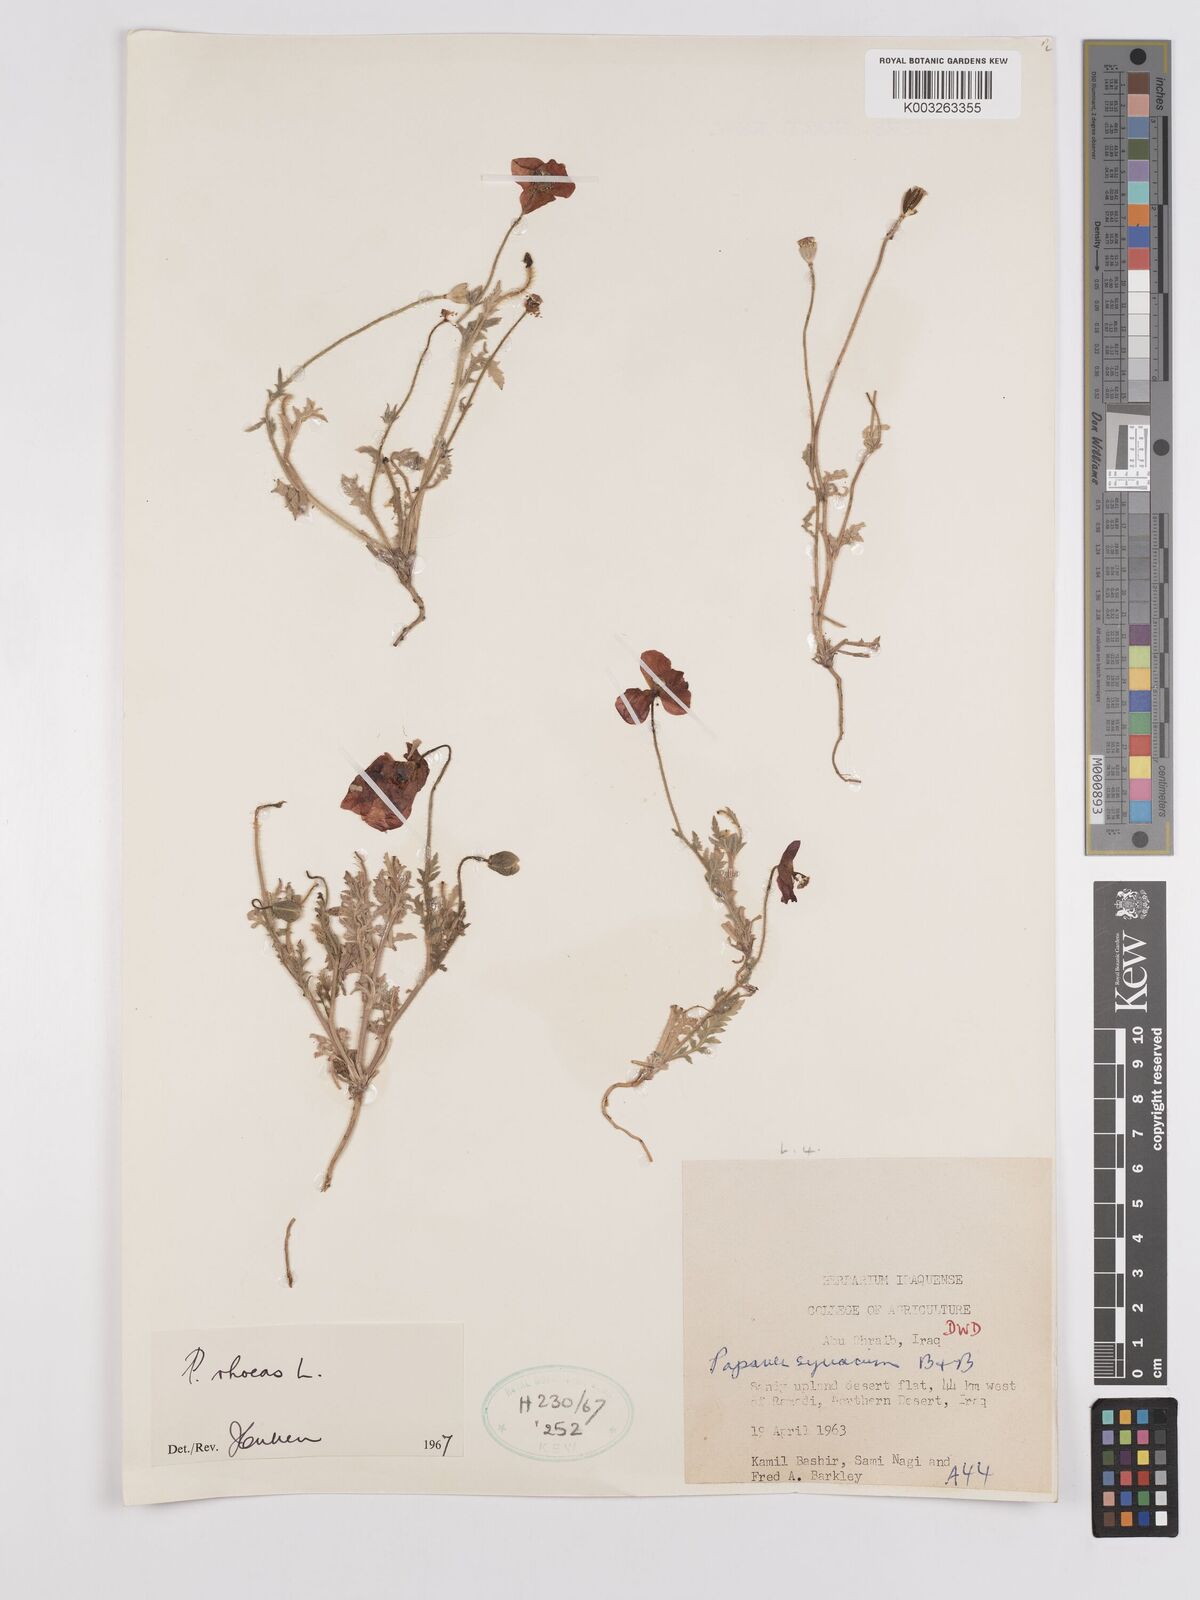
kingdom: Plantae
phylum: Tracheophyta
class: Magnoliopsida
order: Ranunculales
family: Papaveraceae
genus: Papaver
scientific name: Papaver rhoeas
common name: Corn poppy
